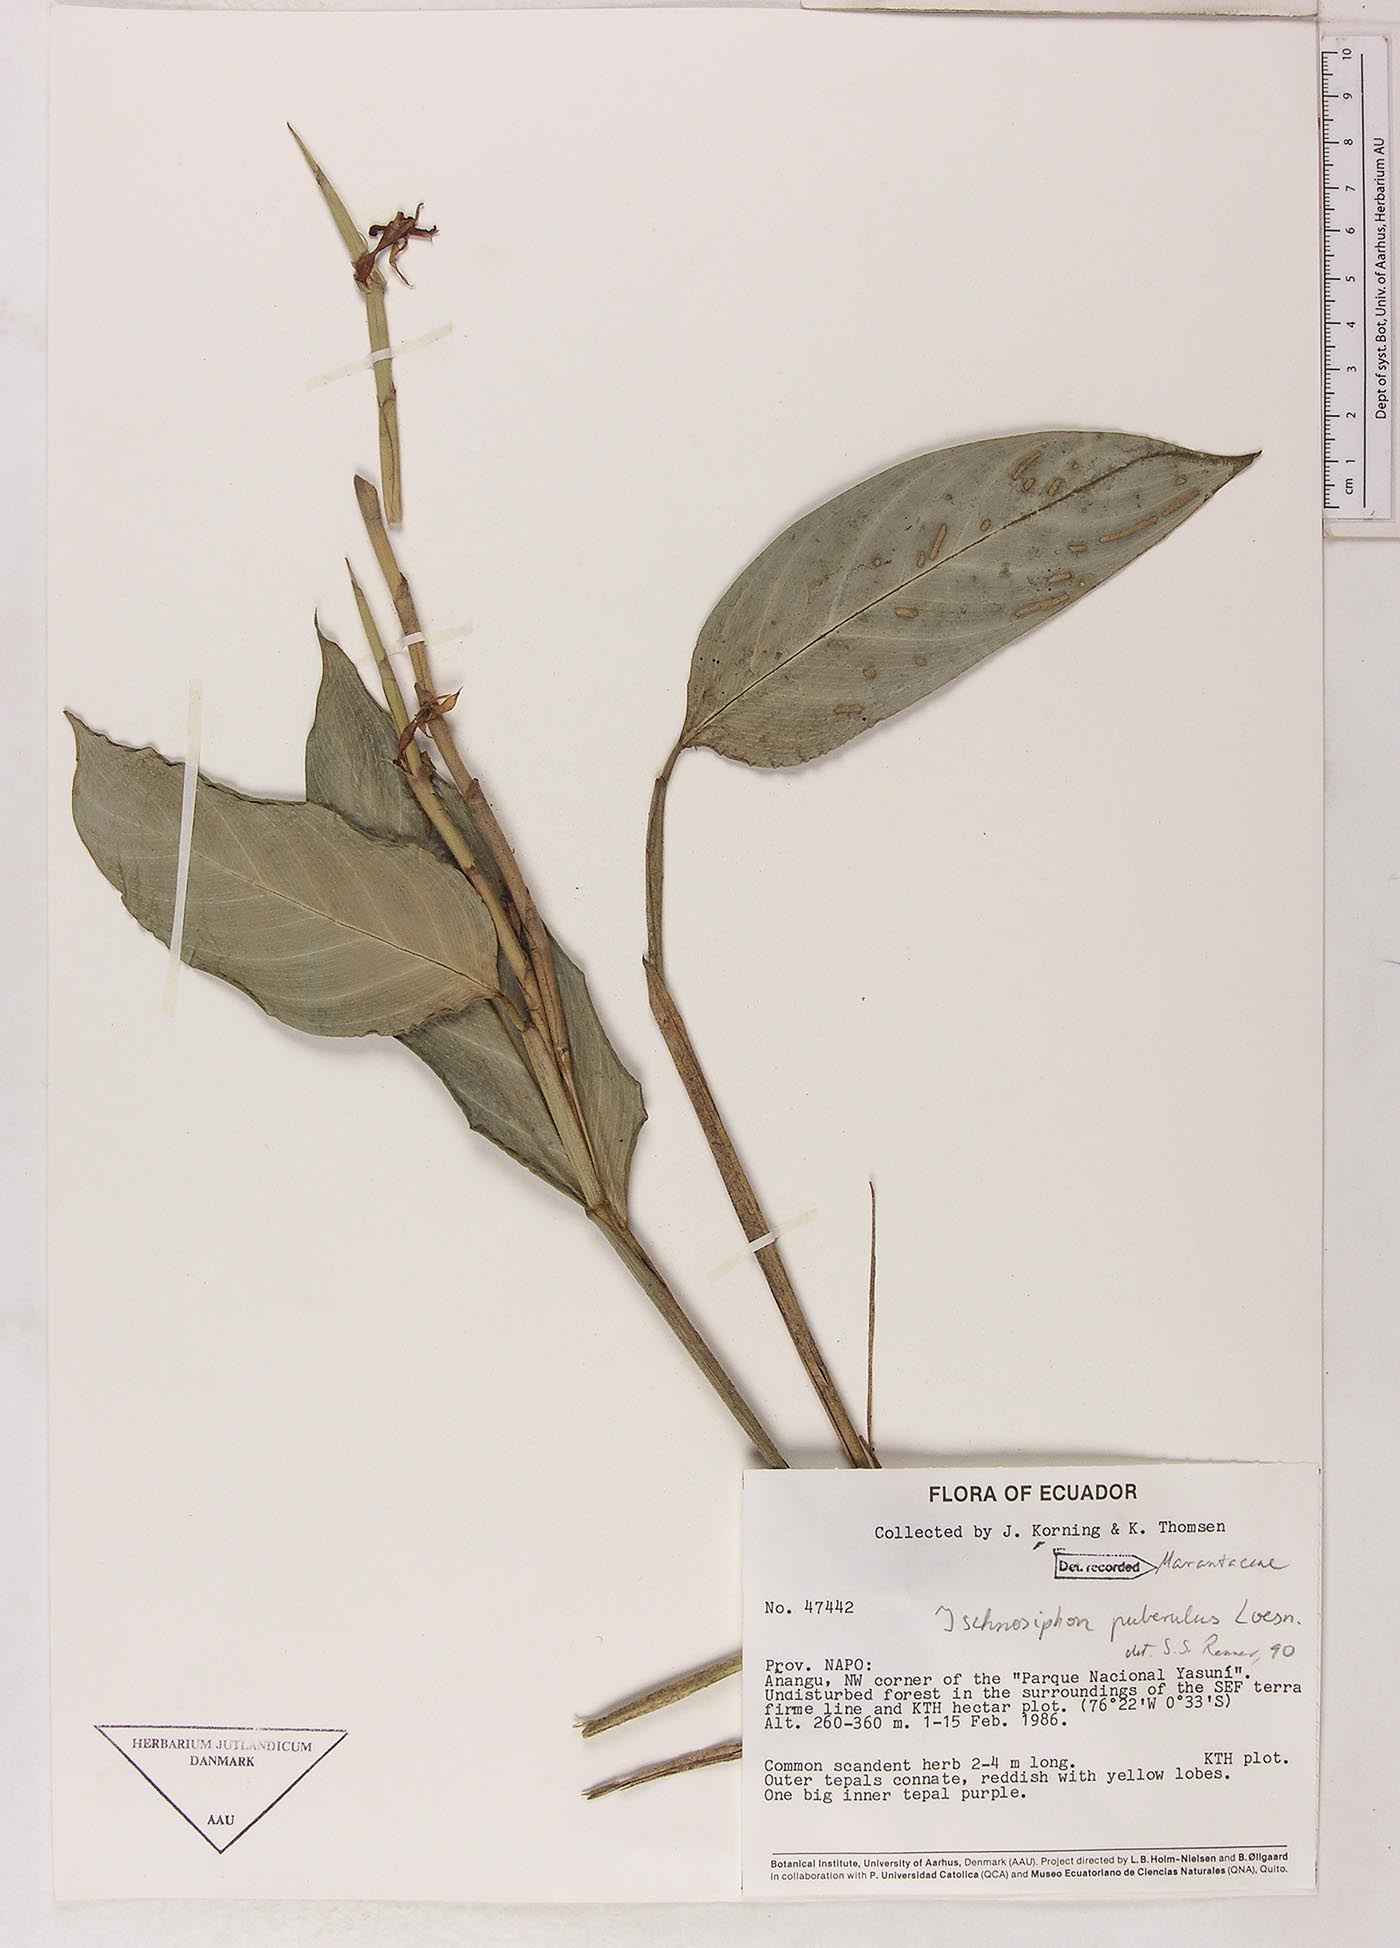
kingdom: Plantae
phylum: Tracheophyta
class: Liliopsida
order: Zingiberales
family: Marantaceae
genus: Ischnosiphon
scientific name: Ischnosiphon puberulus
